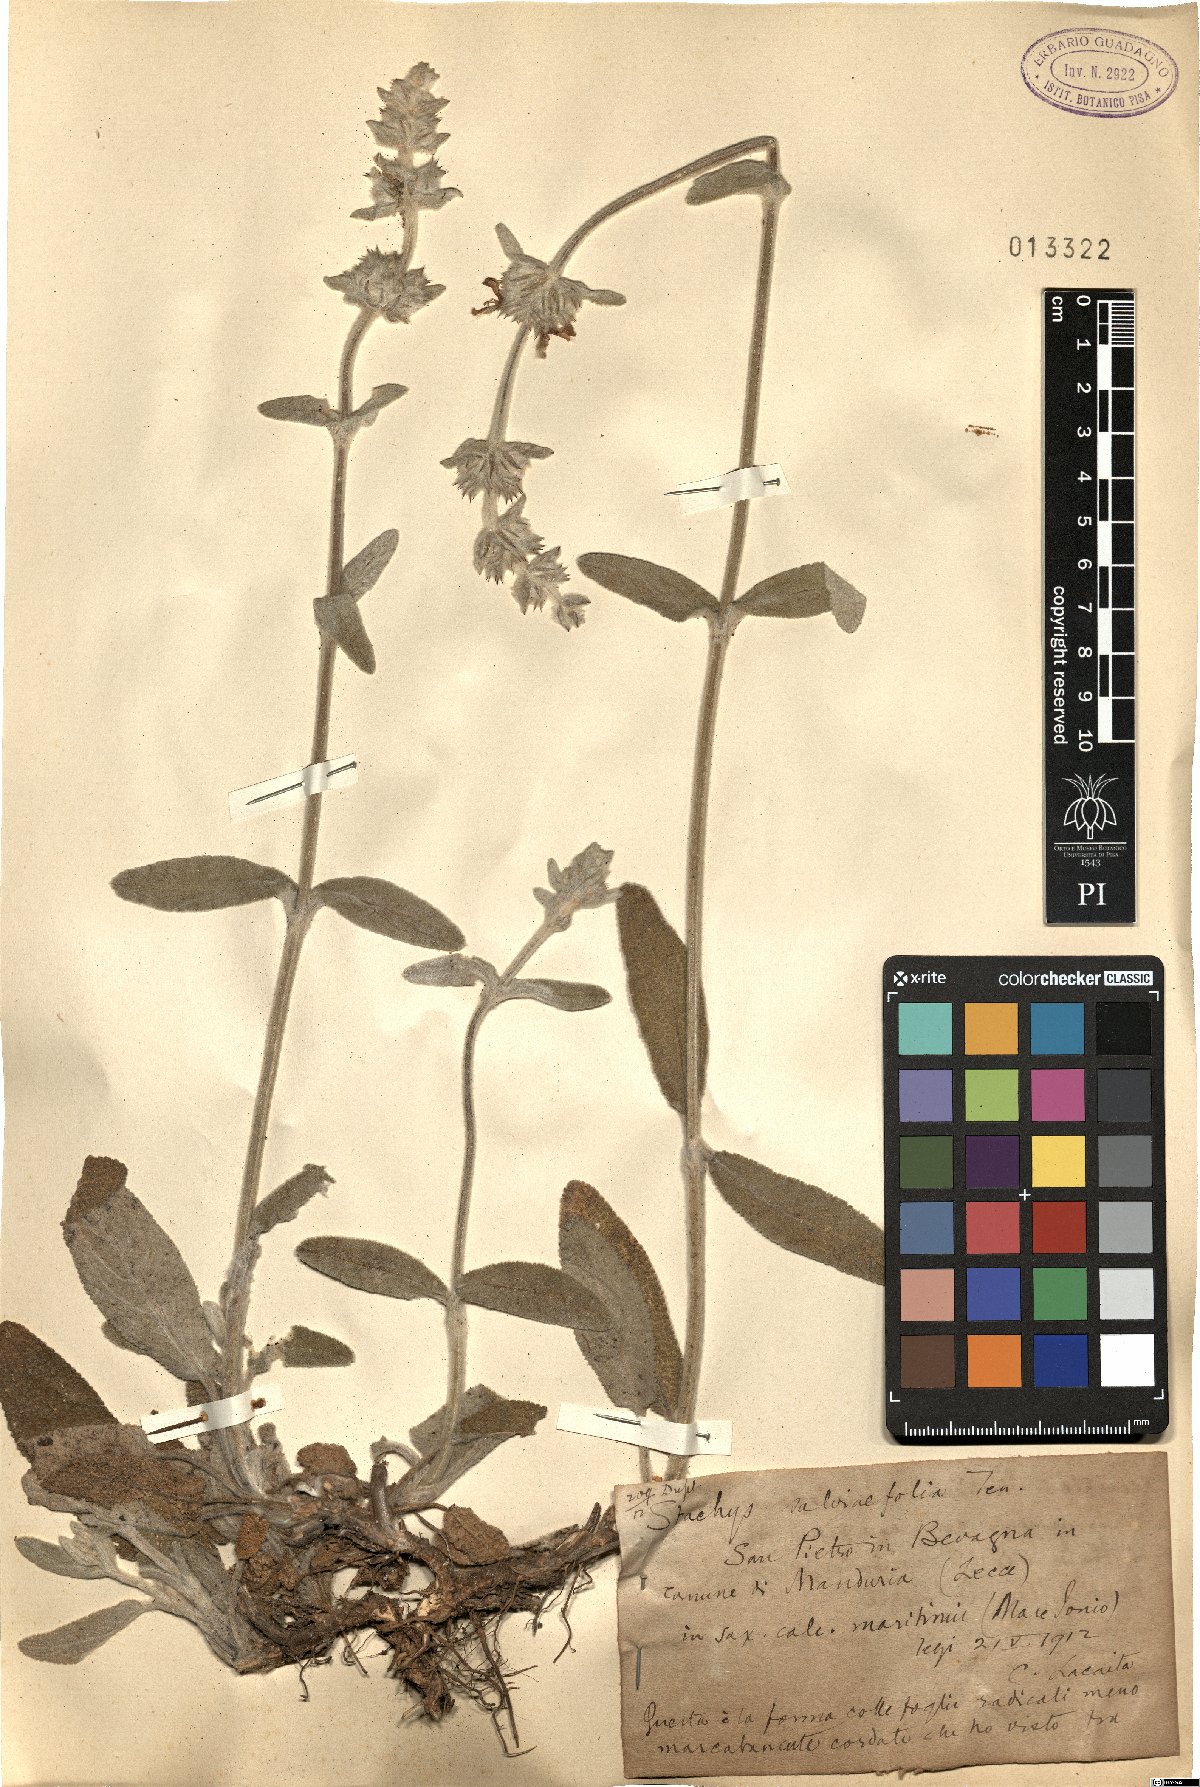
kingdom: Plantae
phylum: Tracheophyta
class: Magnoliopsida
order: Lamiales
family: Lamiaceae
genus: Stachys
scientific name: Stachys cretica
